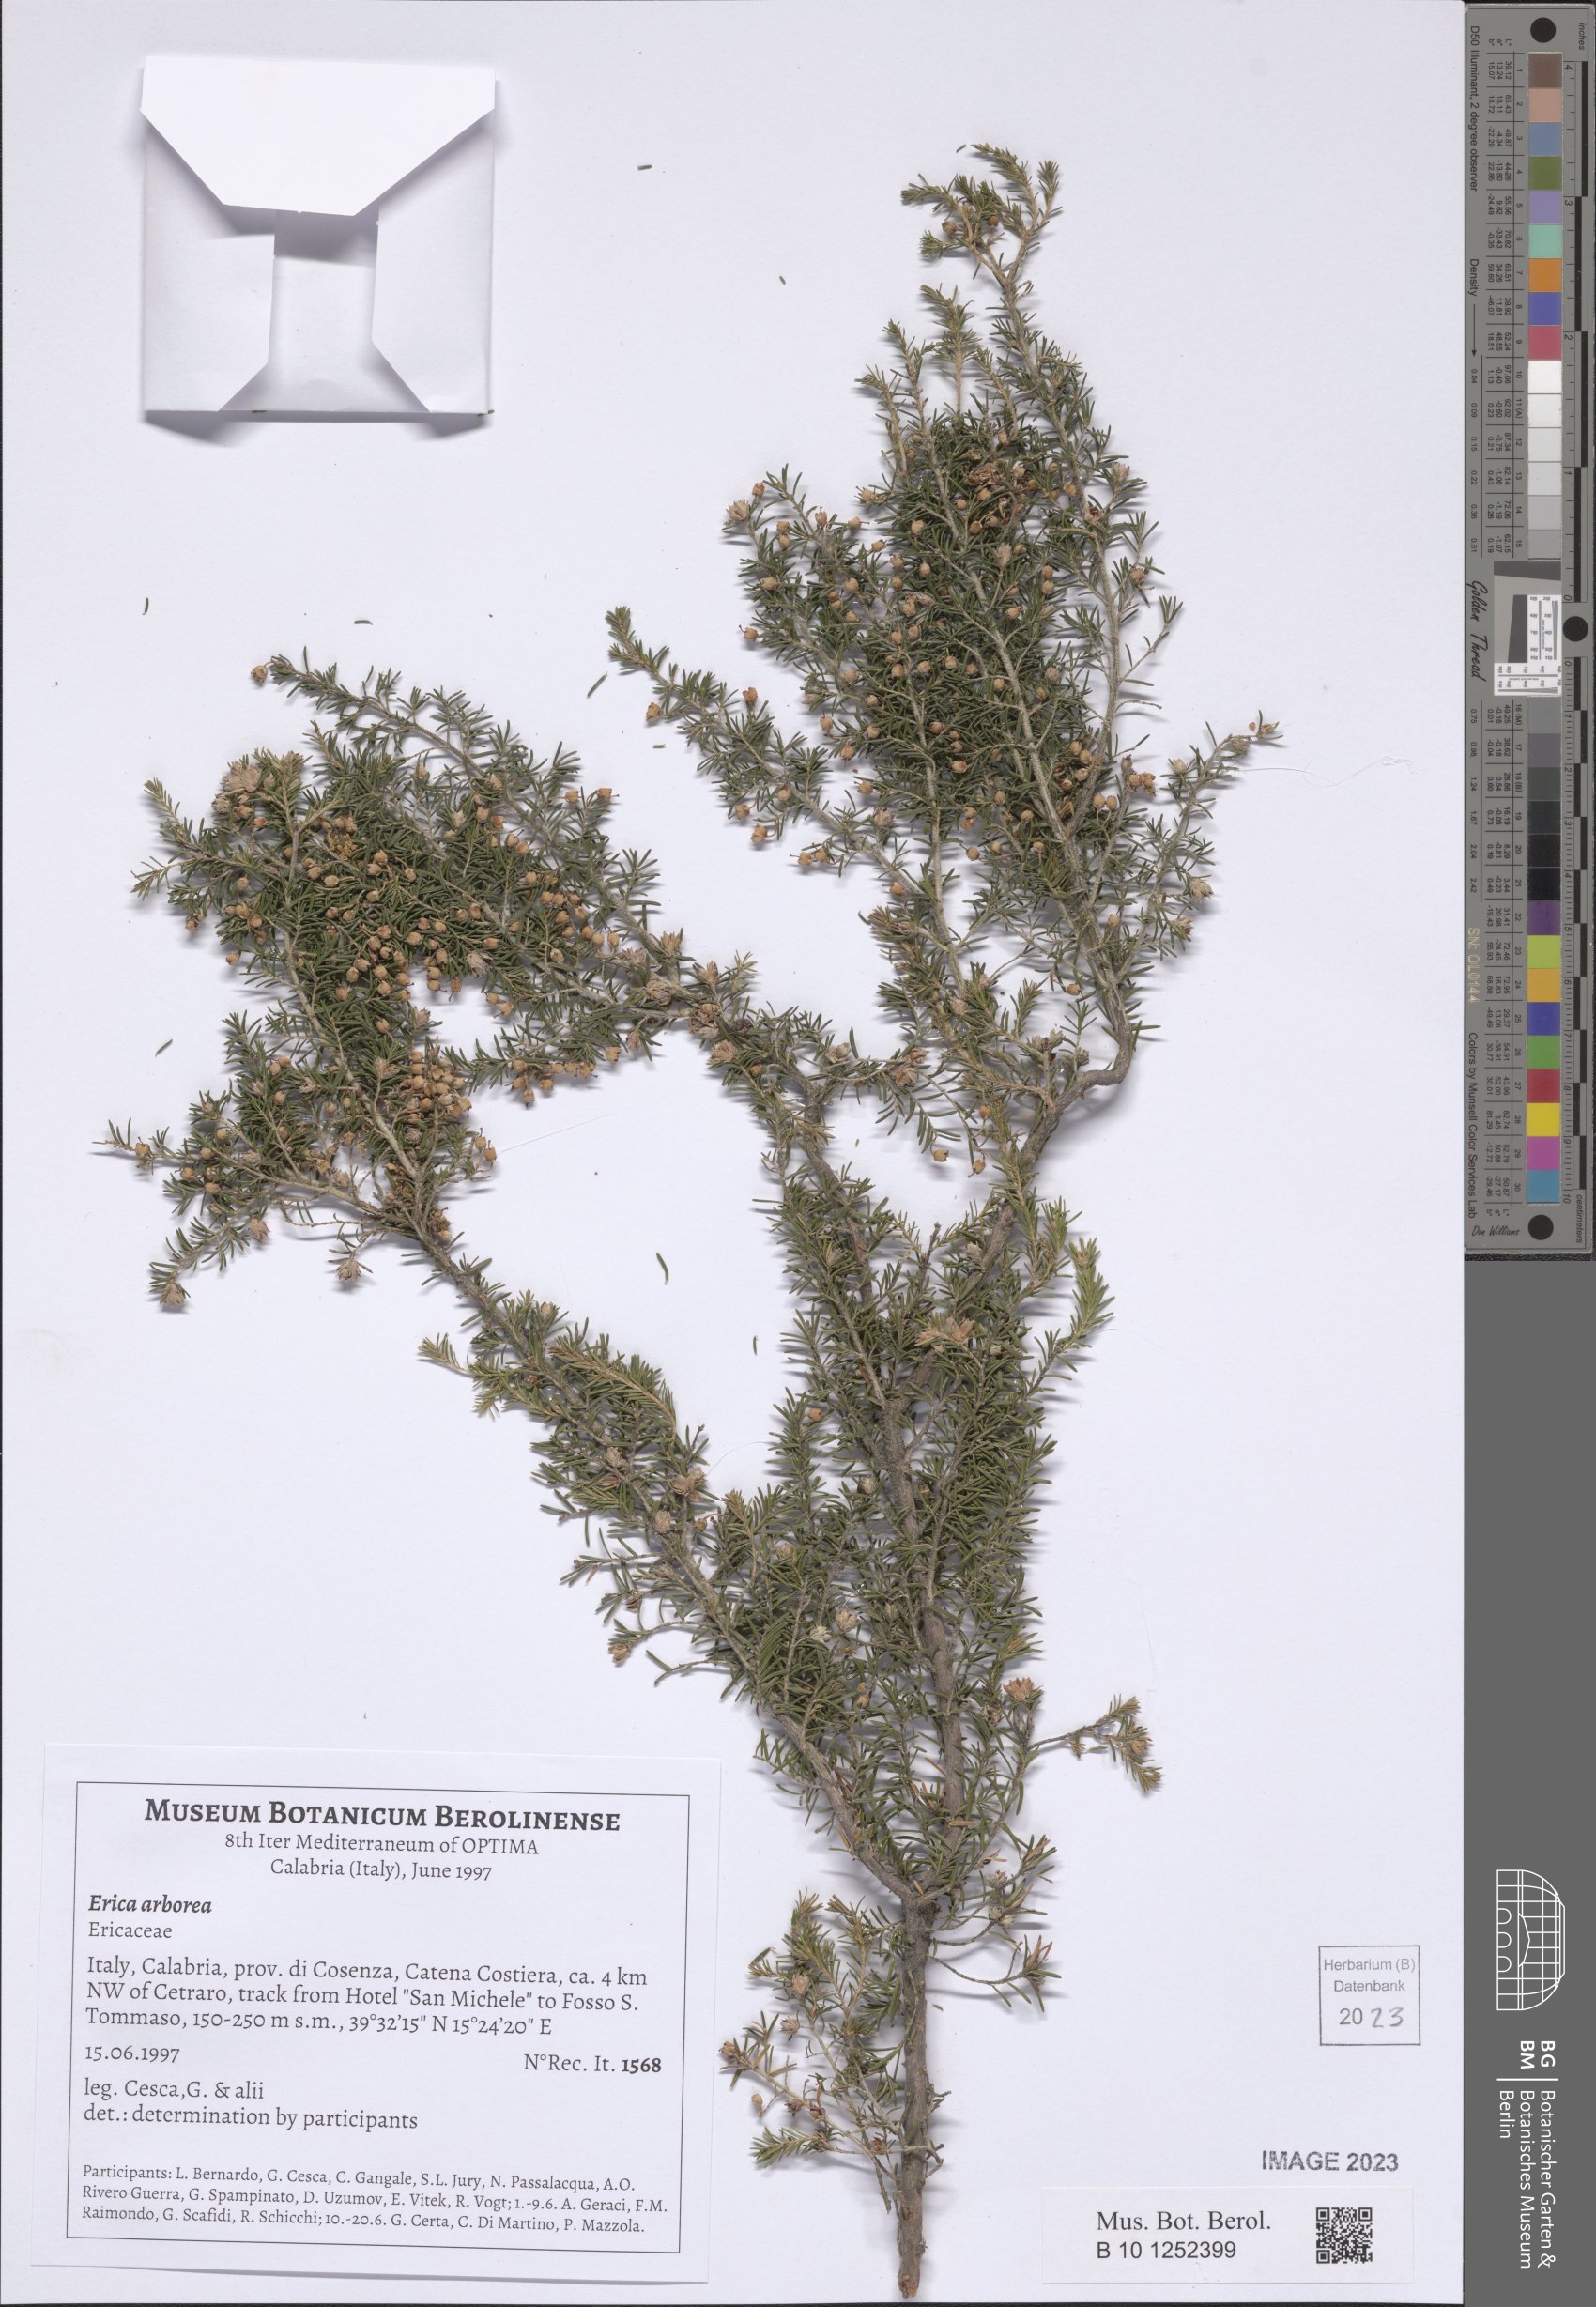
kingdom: Plantae
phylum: Tracheophyta
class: Magnoliopsida
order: Ericales
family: Ericaceae
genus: Erica
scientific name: Erica arborea
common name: Tree heath
